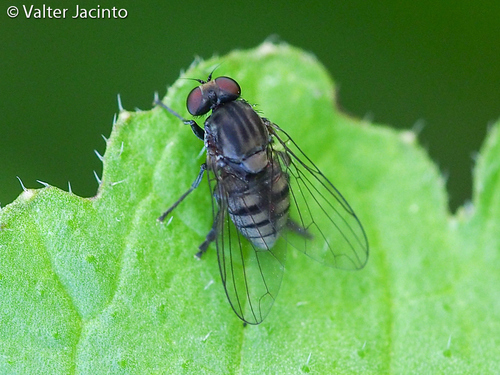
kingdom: Animalia
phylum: Arthropoda
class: Insecta
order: Diptera
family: Platypezidae
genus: Lindneromyia
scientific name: Lindneromyia dorsalis
